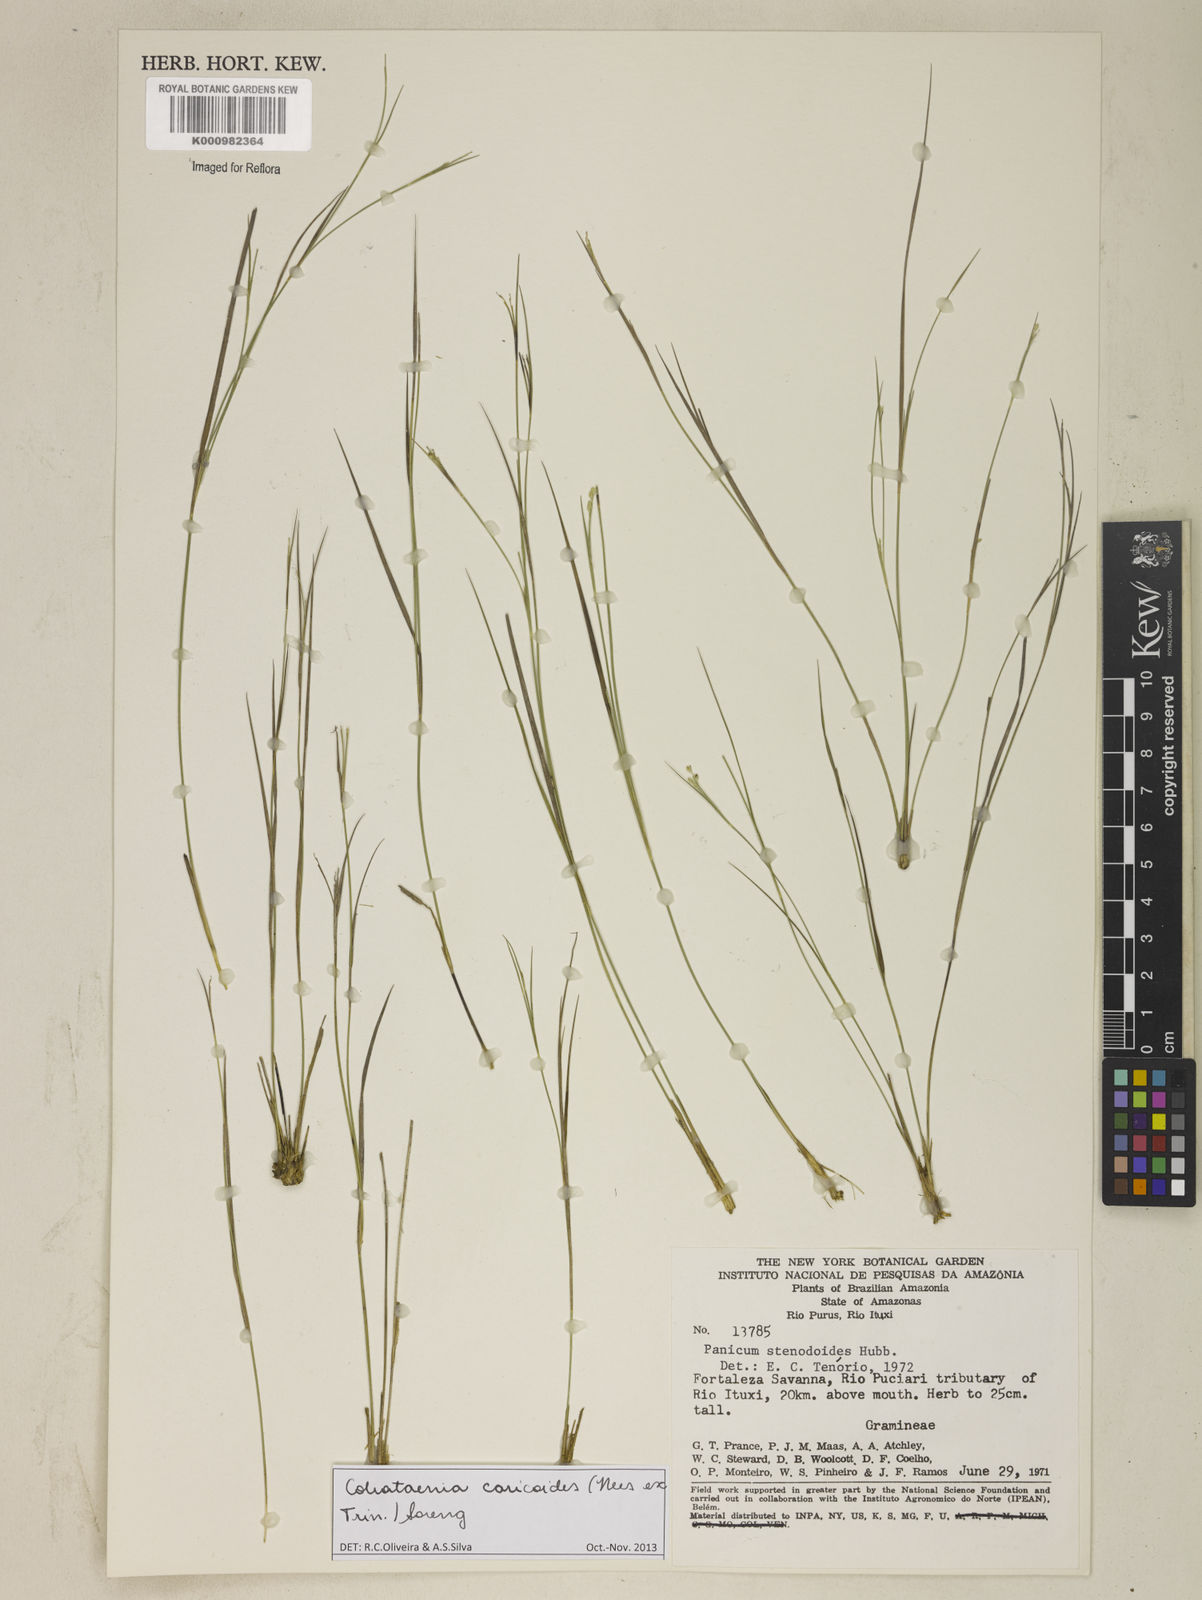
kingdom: Plantae
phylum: Tracheophyta
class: Liliopsida
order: Poales
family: Poaceae
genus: Coleataenia
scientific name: Coleataenia caricoides
